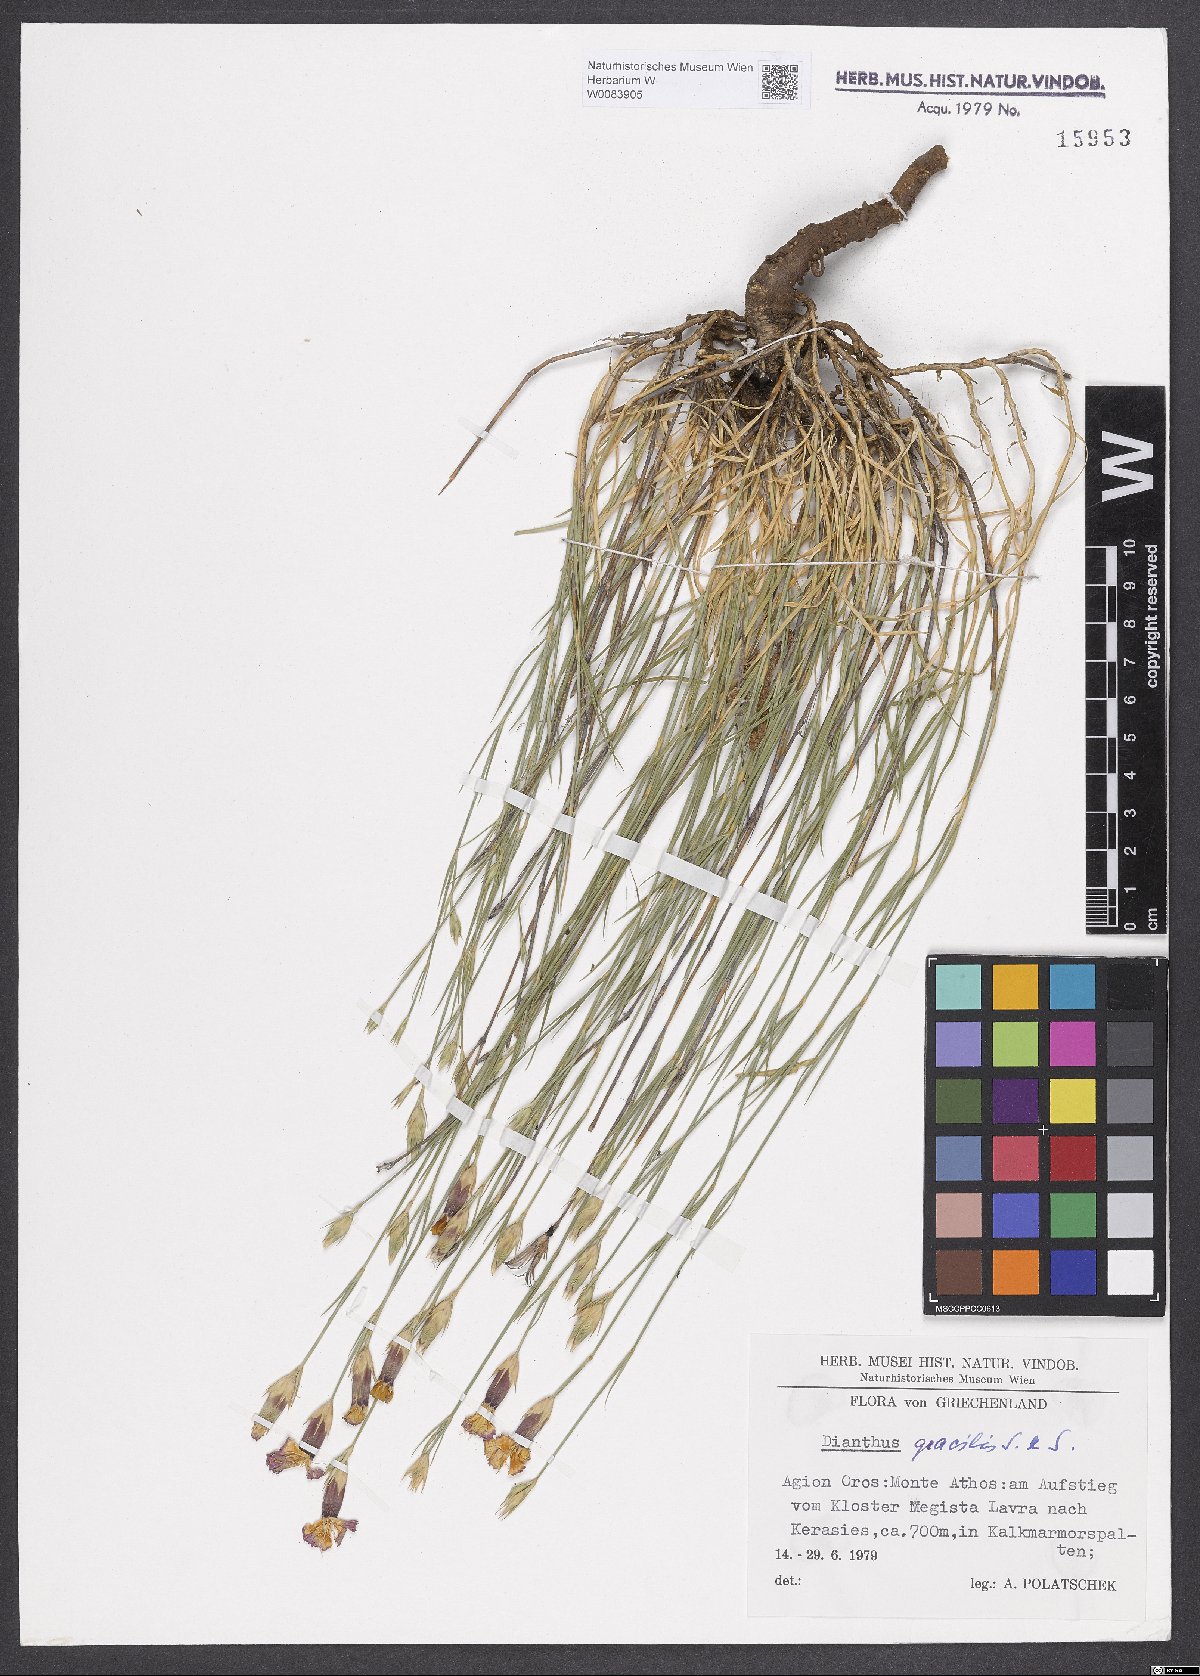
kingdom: Plantae
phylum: Tracheophyta
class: Magnoliopsida
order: Caryophyllales
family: Caryophyllaceae
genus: Dianthus
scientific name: Dianthus gracilis
